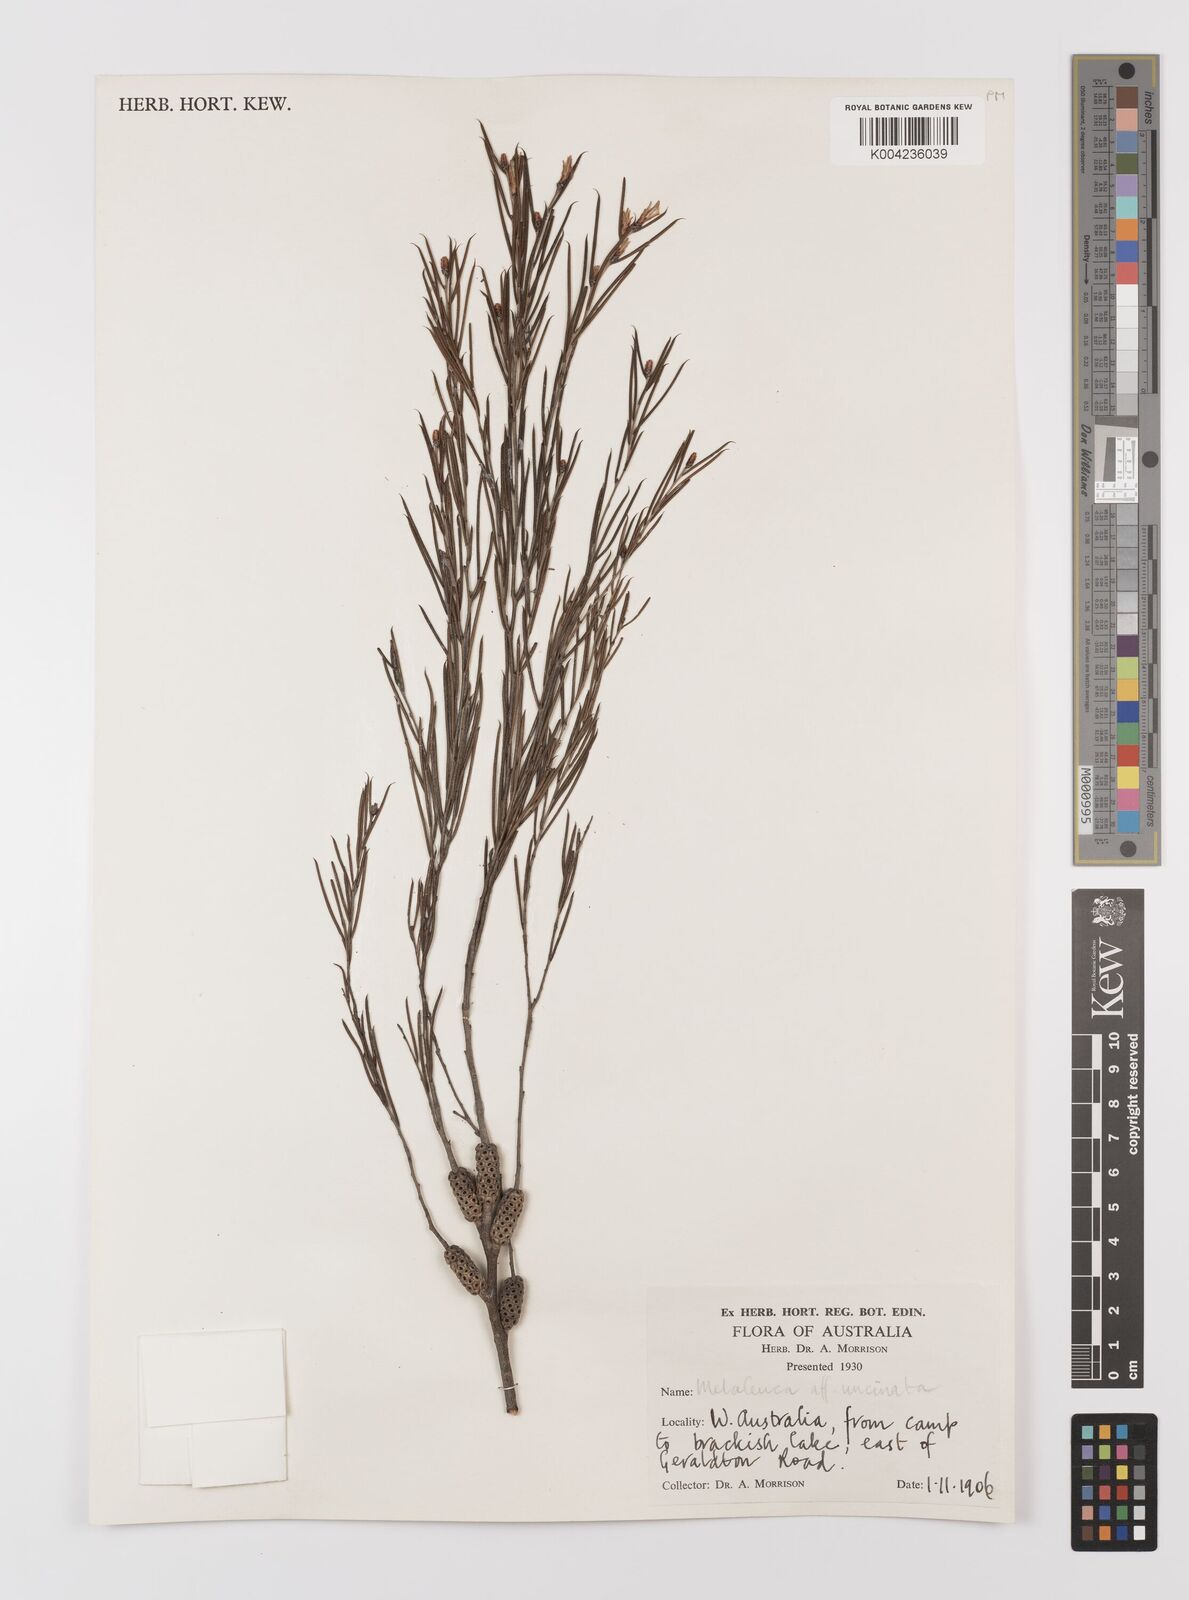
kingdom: Plantae
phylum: Tracheophyta
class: Magnoliopsida
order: Myrtales
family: Myrtaceae
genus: Melaleuca
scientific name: Melaleuca uncinata
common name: Broom honey myrtle
